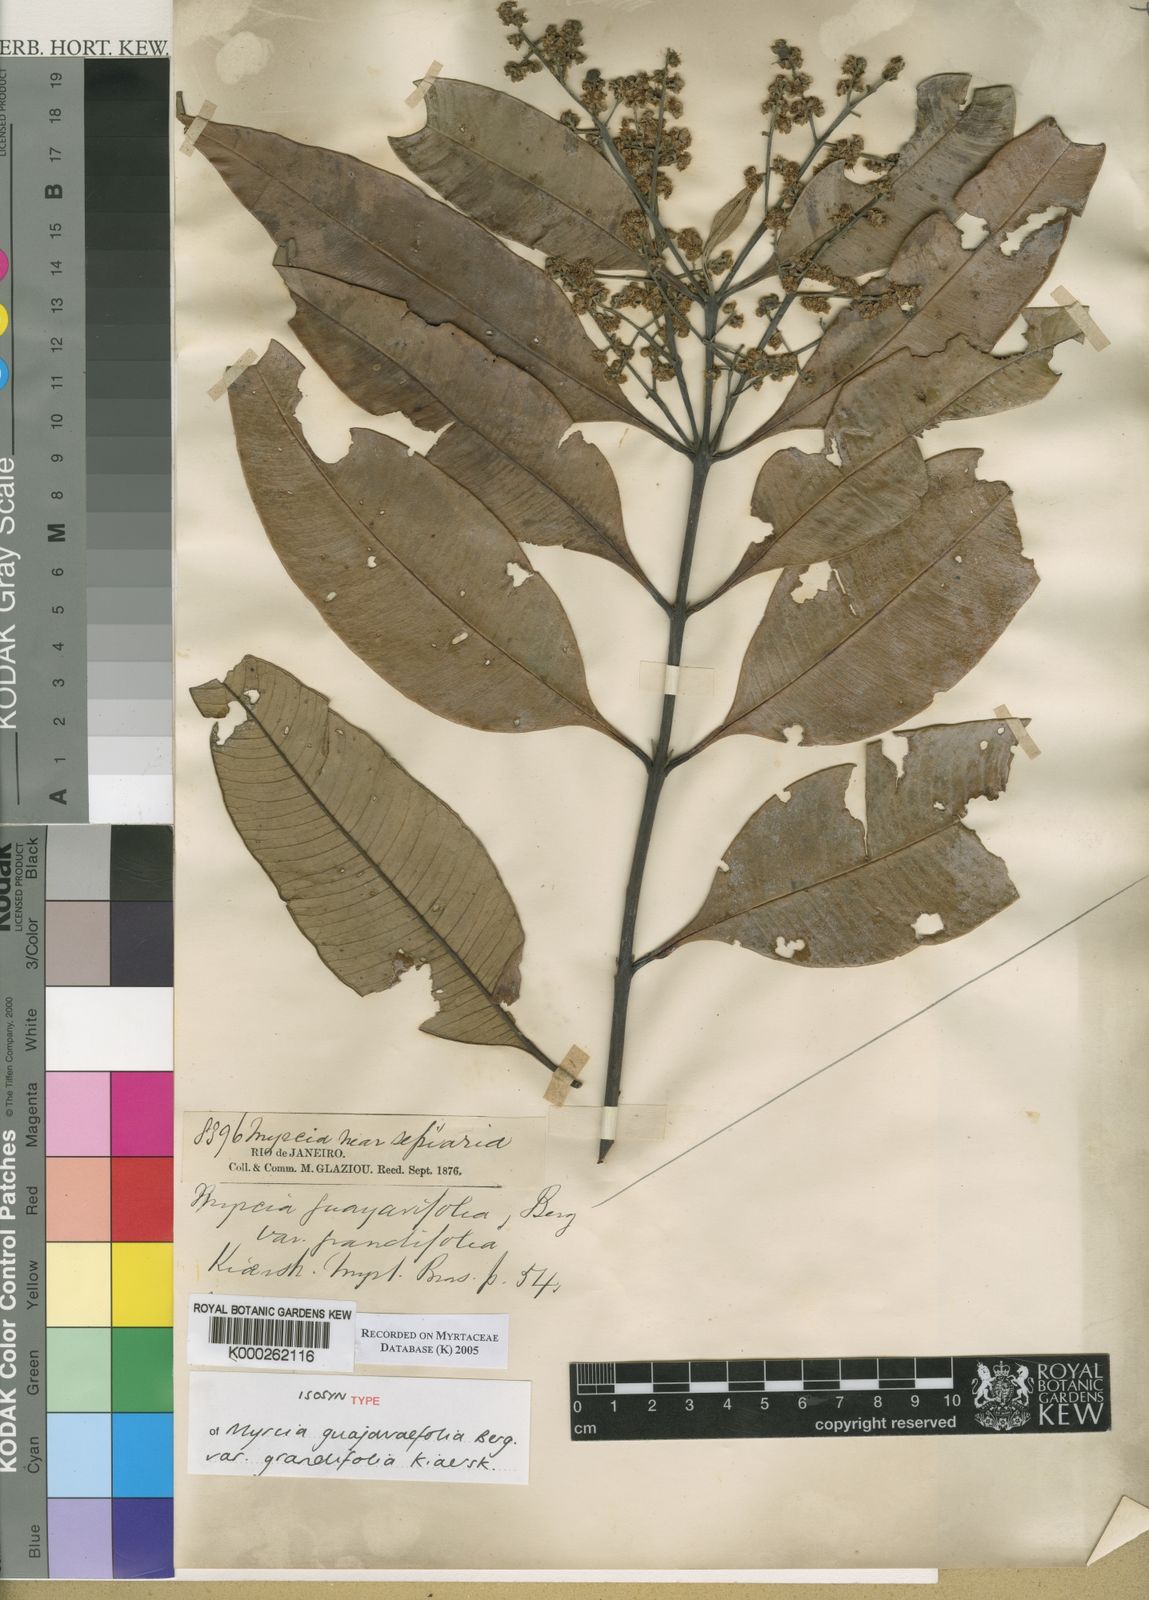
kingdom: Plantae
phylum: Tracheophyta
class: Magnoliopsida
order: Myrtales
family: Myrtaceae
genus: Myrcia
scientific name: Myrcia splendens
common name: Surinam cherry
